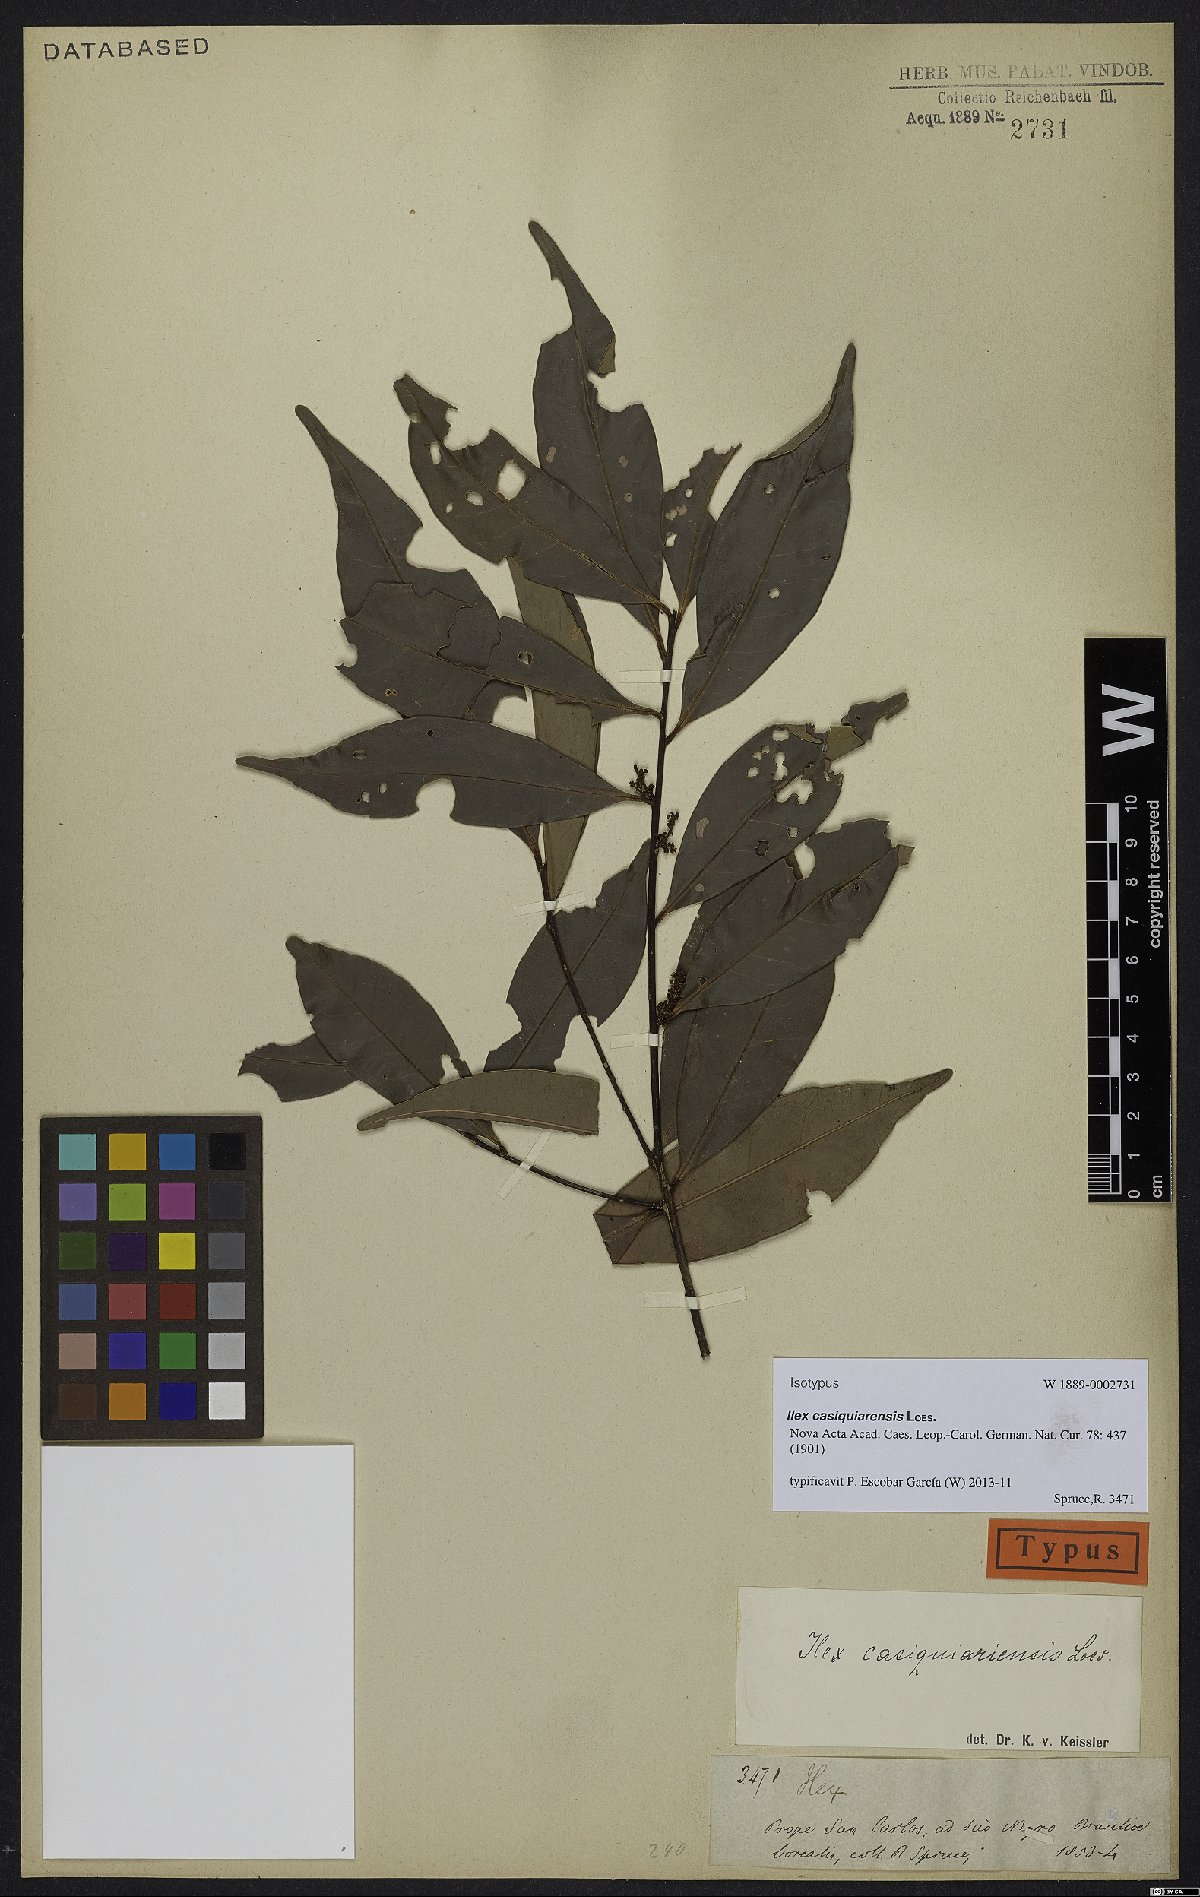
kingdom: Plantae
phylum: Tracheophyta
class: Magnoliopsida
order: Aquifoliales
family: Aquifoliaceae
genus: Ilex
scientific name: Ilex casiquiarensis
